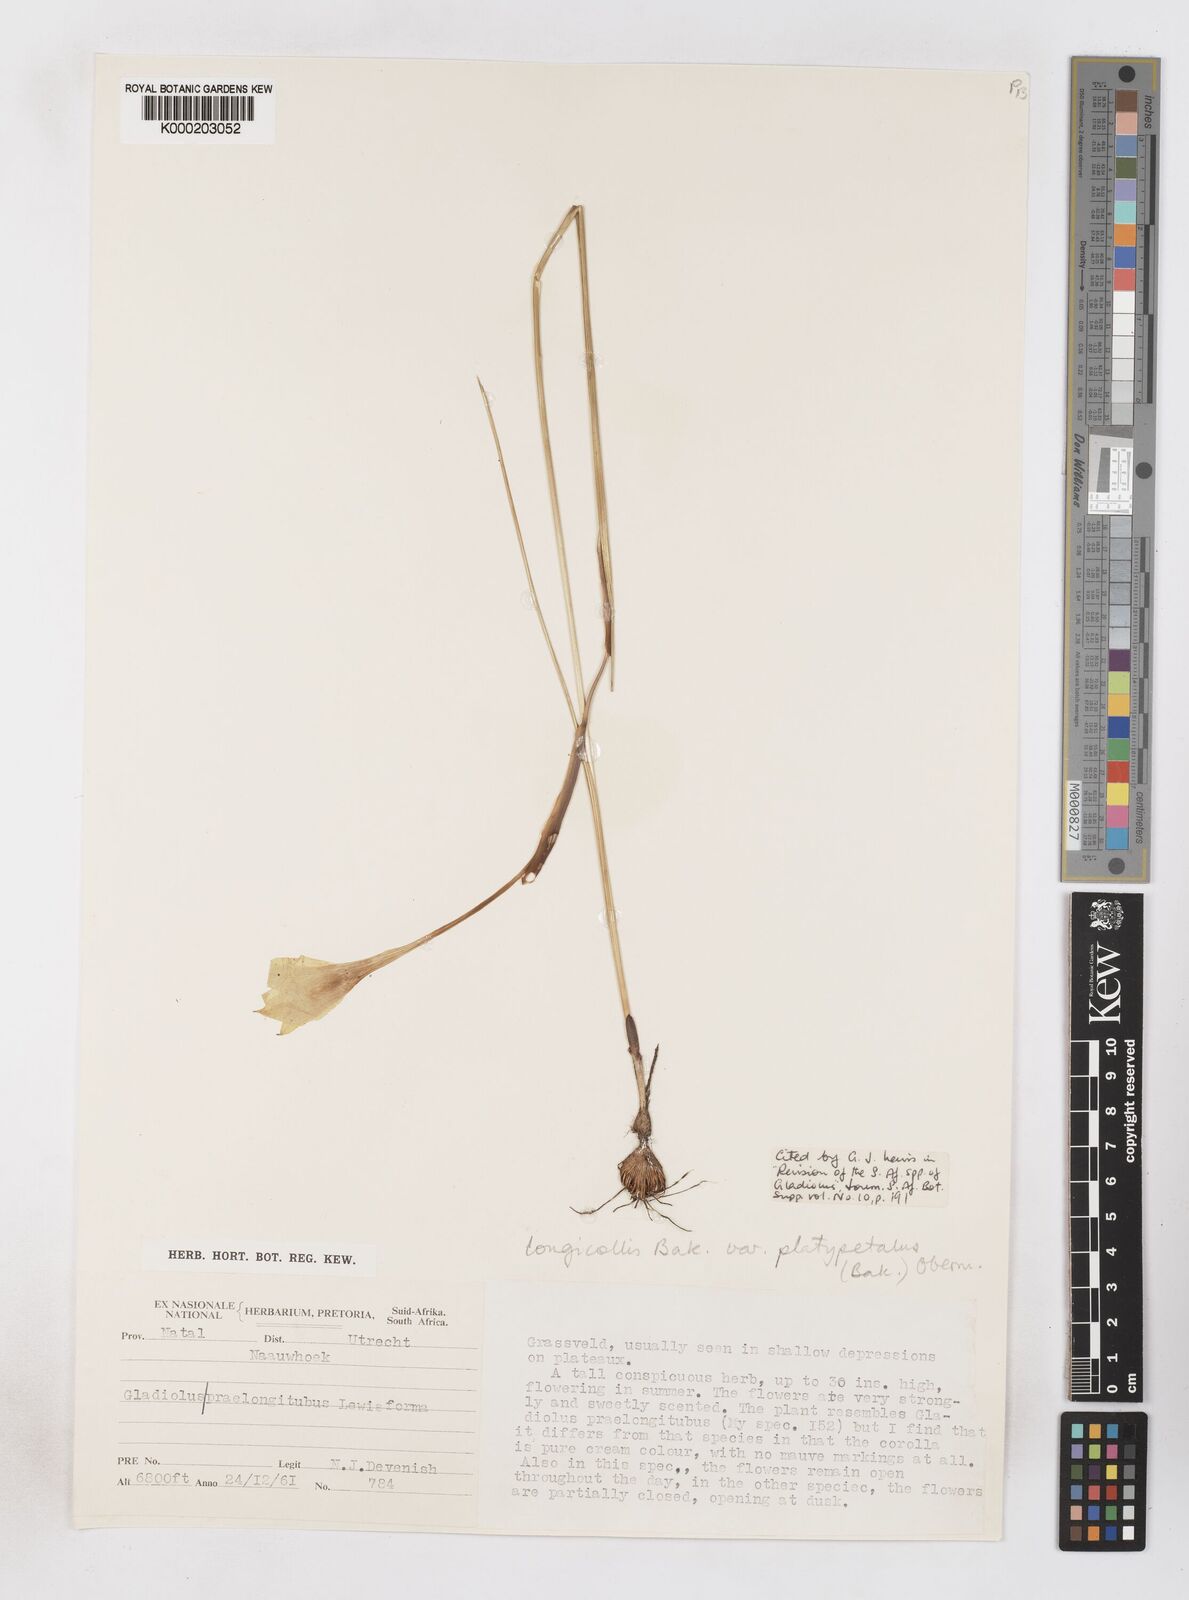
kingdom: Plantae
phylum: Tracheophyta
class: Liliopsida
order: Asparagales
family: Iridaceae
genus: Gladiolus
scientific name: Gladiolus longicollis
